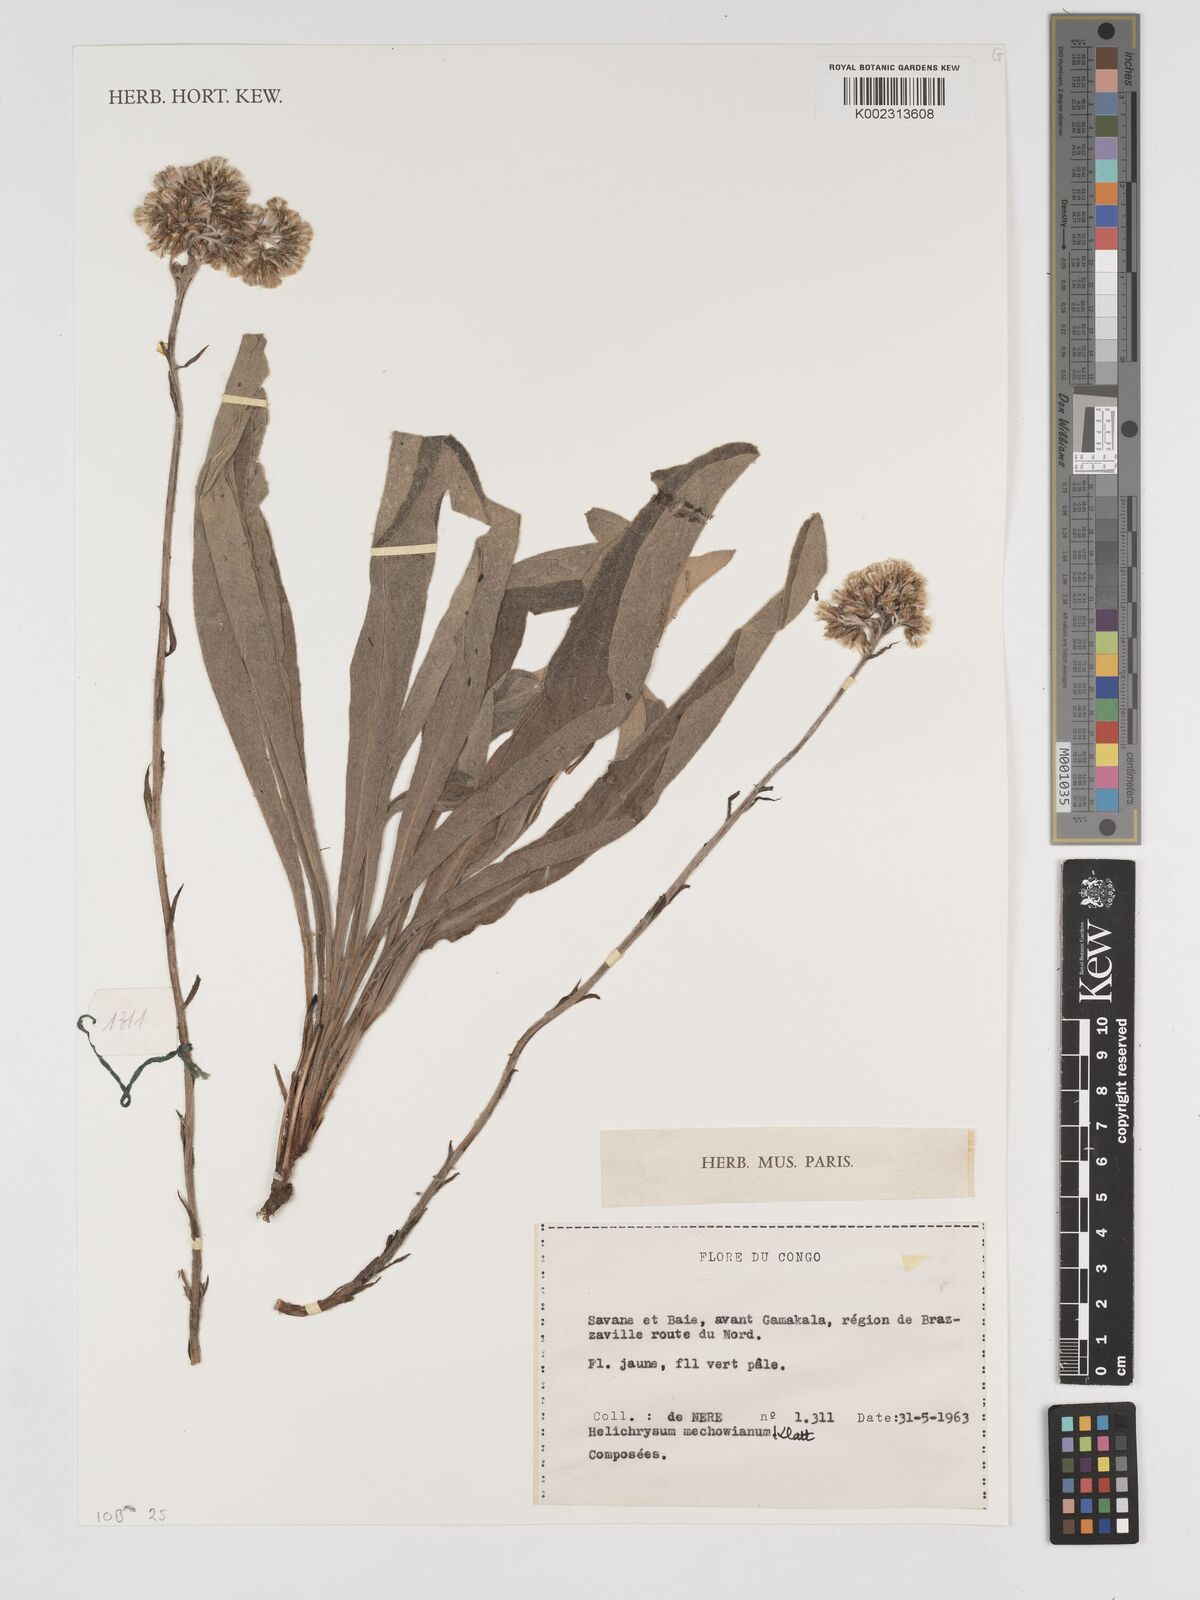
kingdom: Plantae
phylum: Tracheophyta
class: Magnoliopsida
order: Asterales
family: Asteraceae
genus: Helichrysum
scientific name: Helichrysum mechowianum
